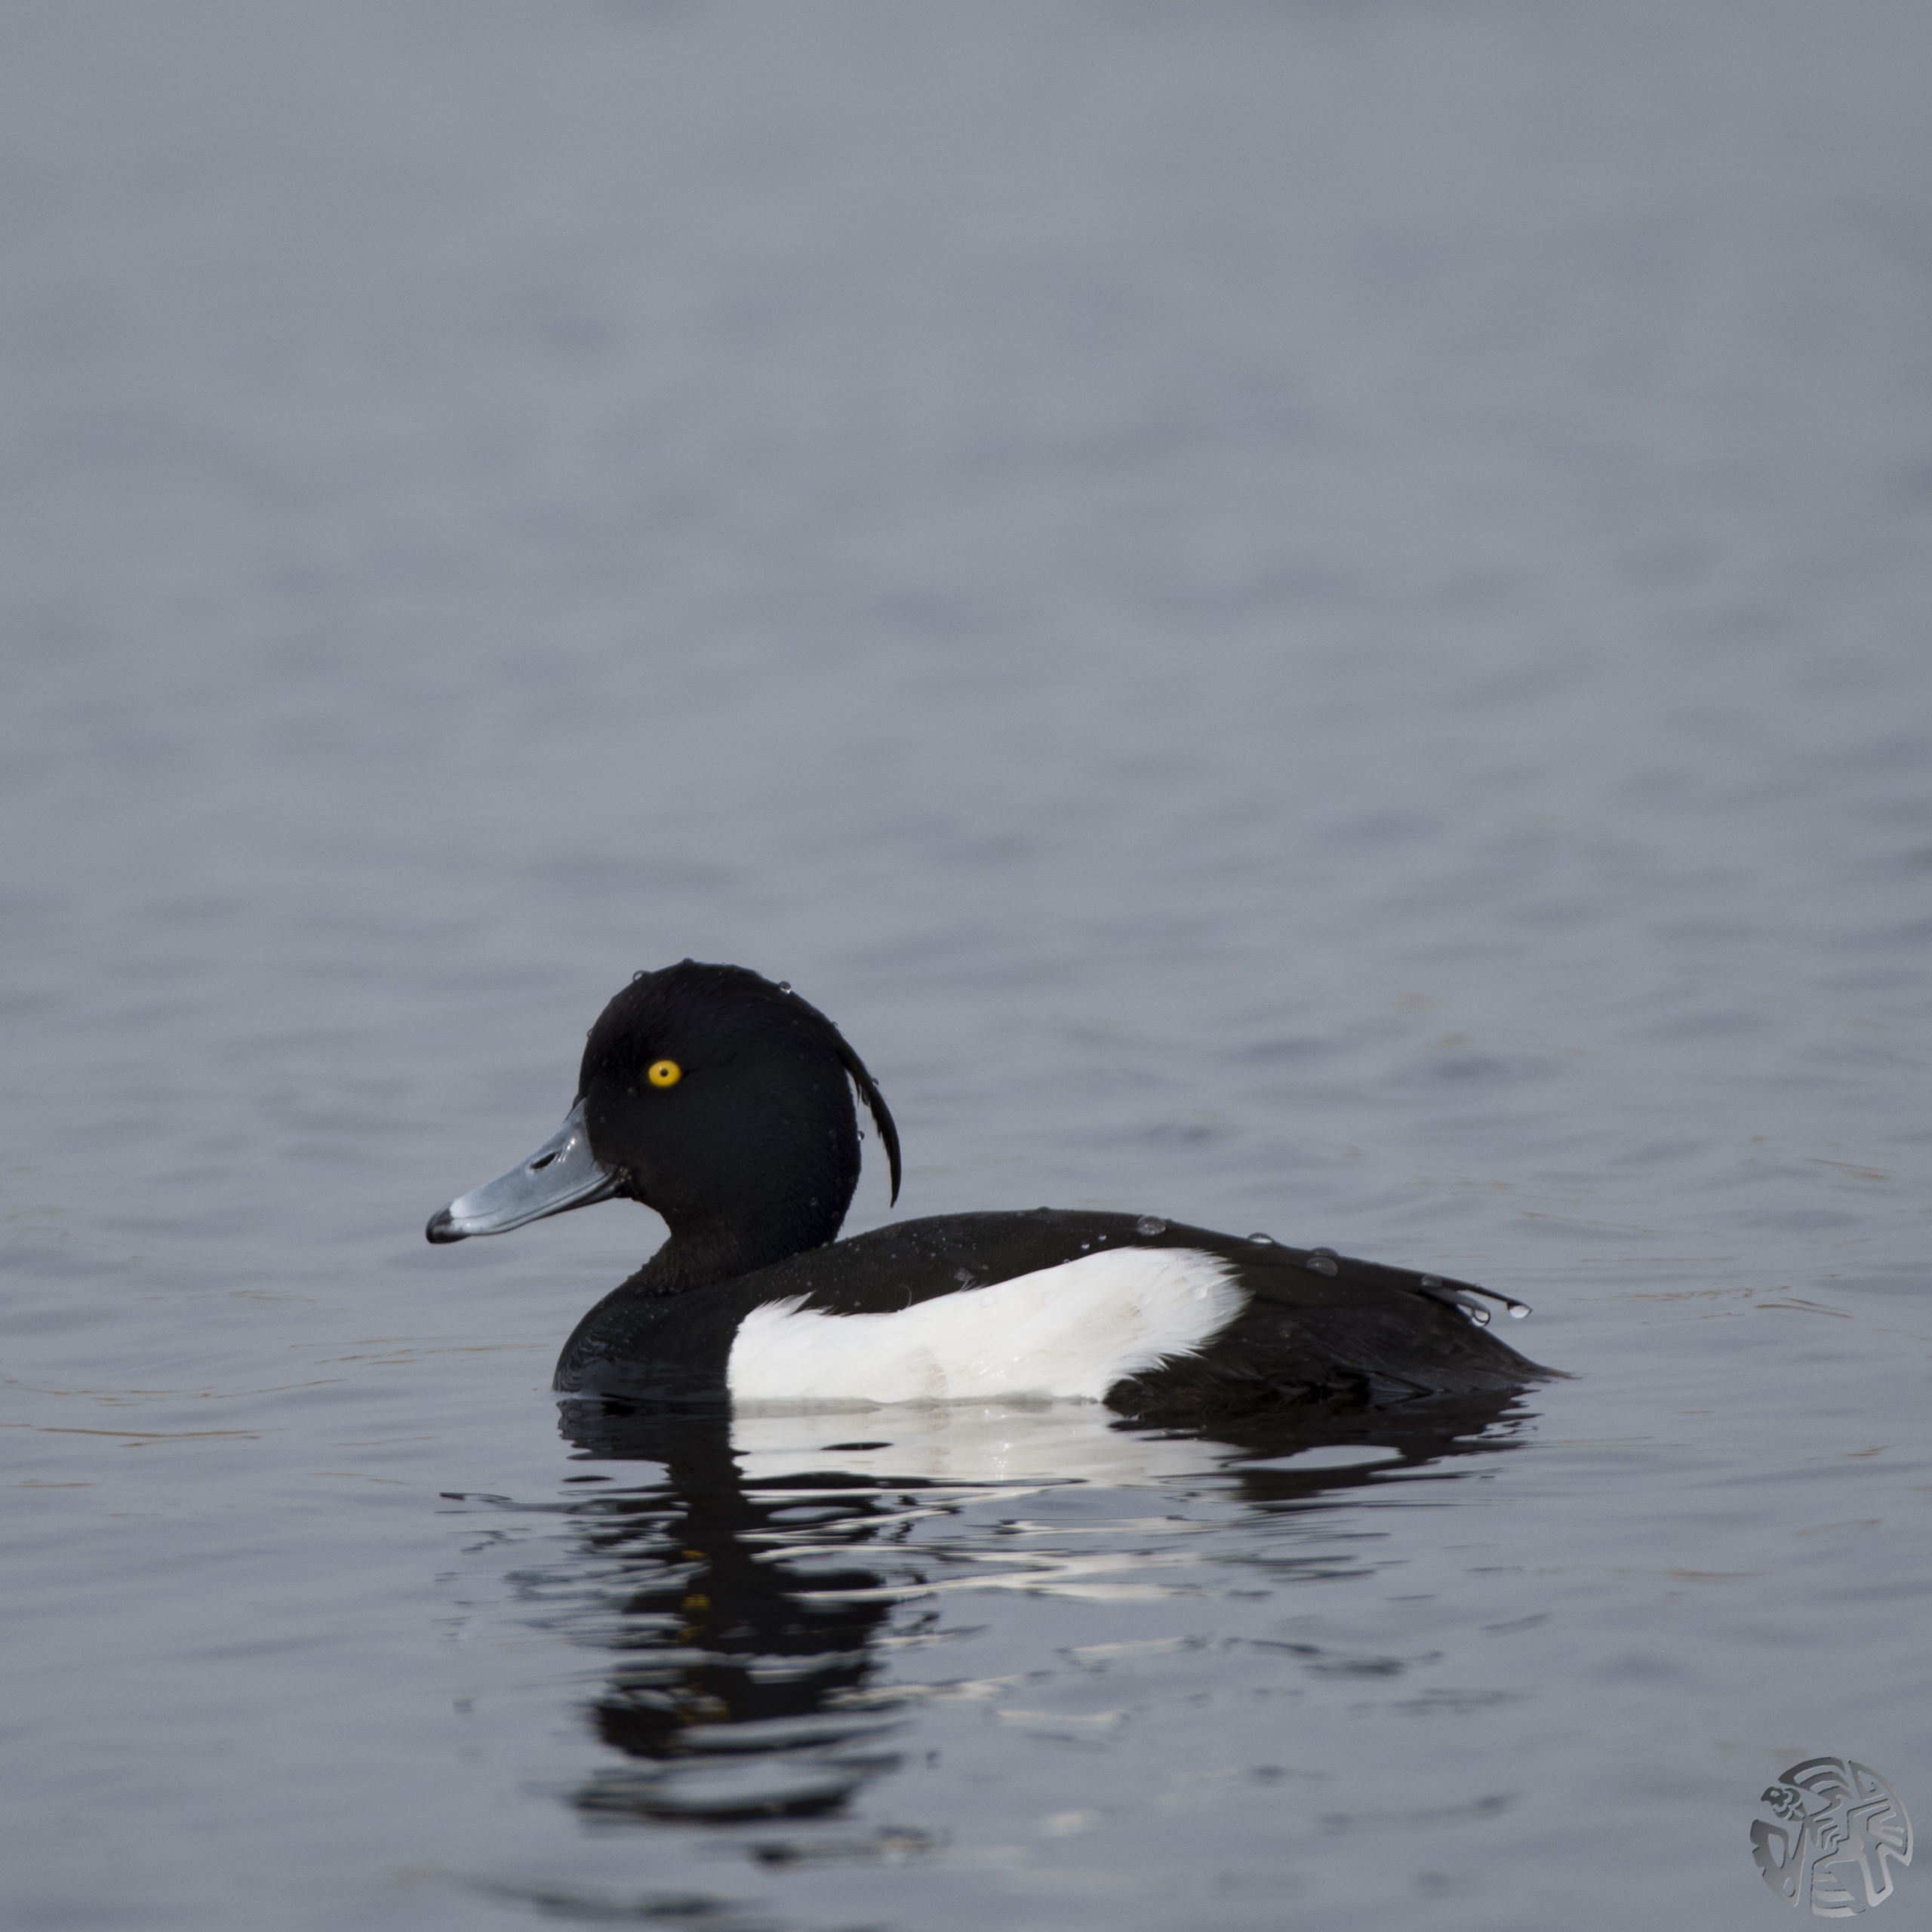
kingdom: Animalia
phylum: Chordata
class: Aves
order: Anseriformes
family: Anatidae
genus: Aythya
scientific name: Aythya fuligula
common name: Troldand
